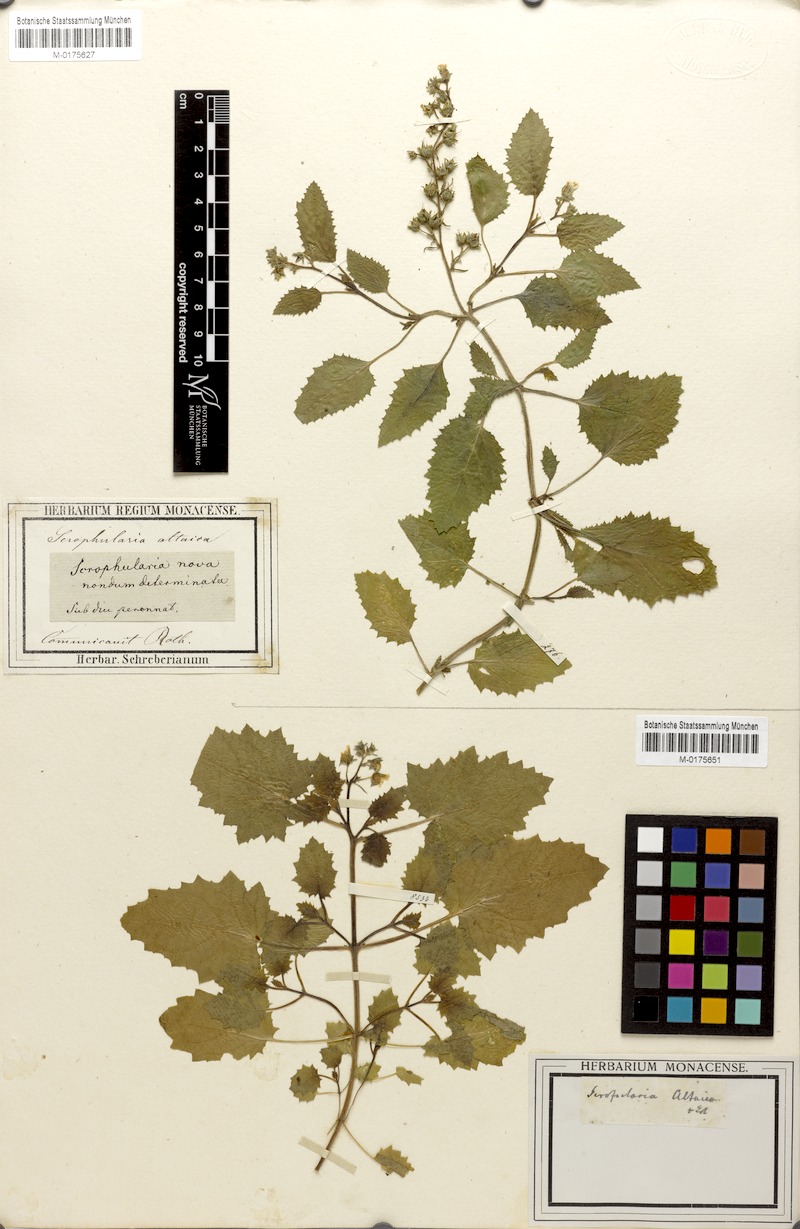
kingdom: Plantae
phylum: Tracheophyta
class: Magnoliopsida
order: Lamiales
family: Scrophulariaceae
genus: Scrophularia
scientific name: Scrophularia altaica
